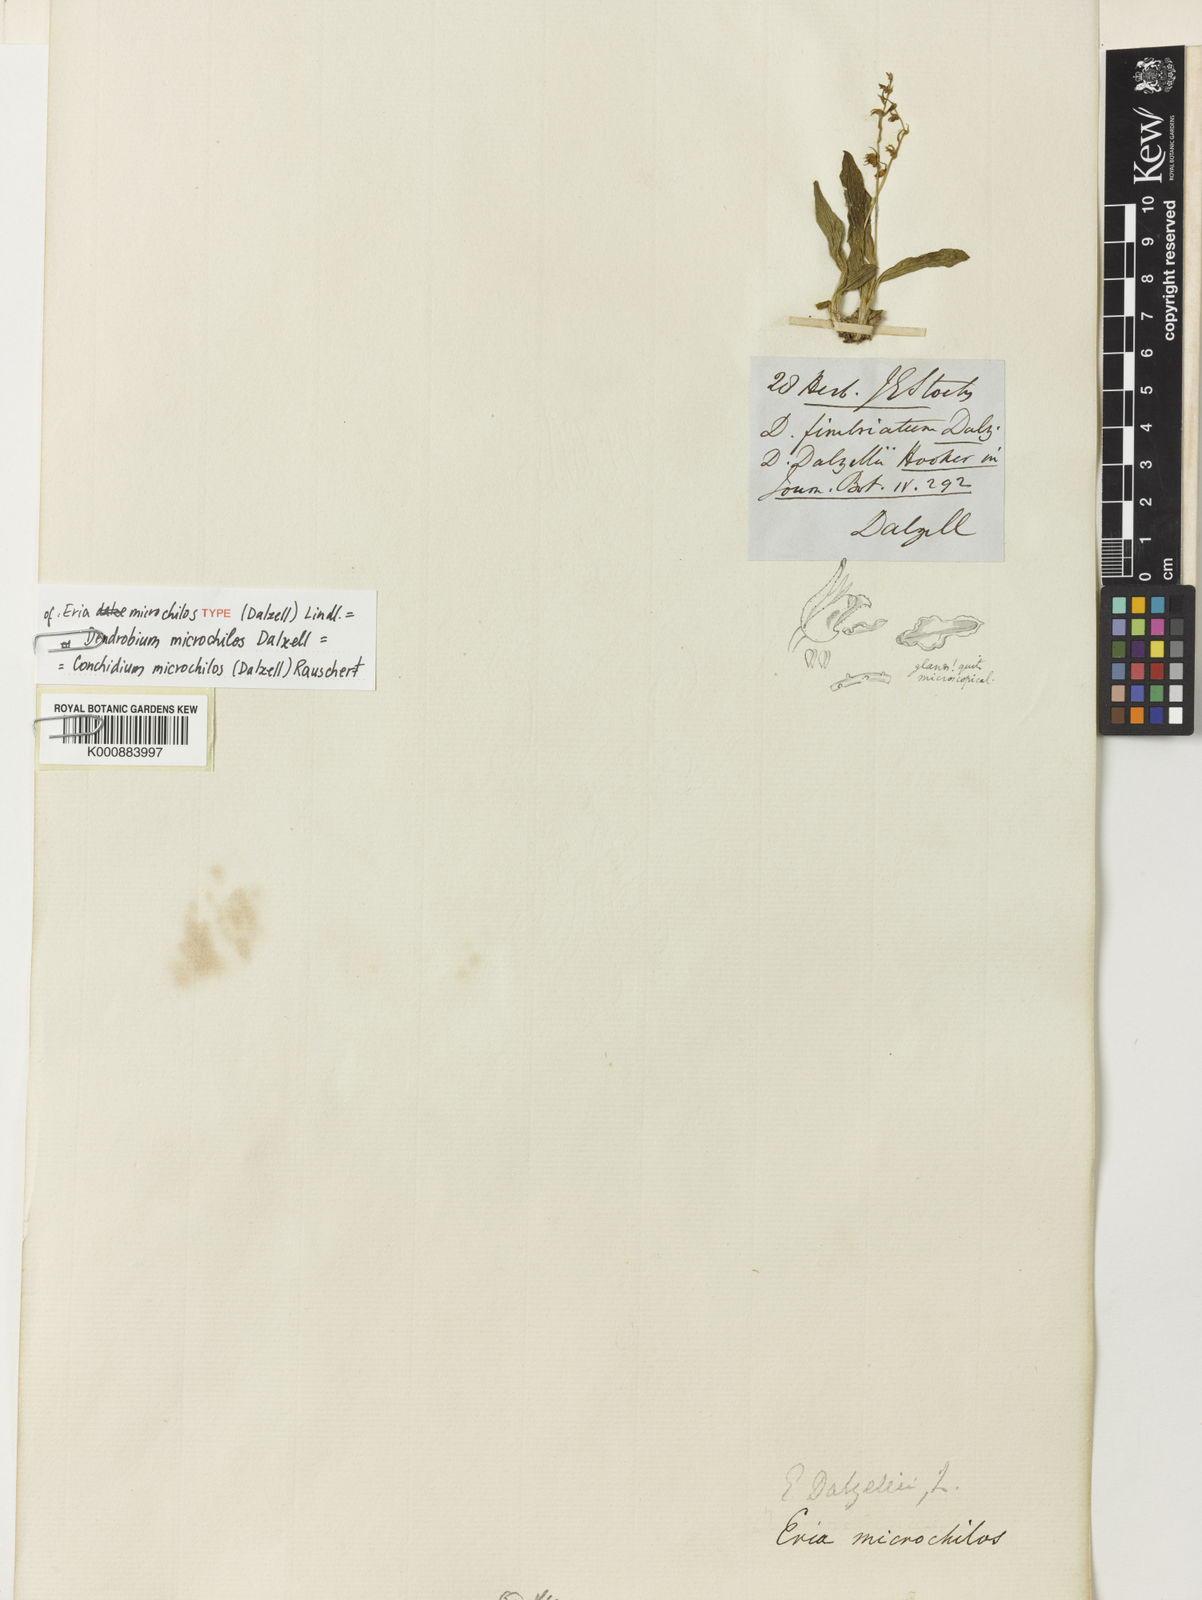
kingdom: Plantae
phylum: Tracheophyta
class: Liliopsida
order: Asparagales
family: Orchidaceae
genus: Porpax
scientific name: Porpax microchilos
